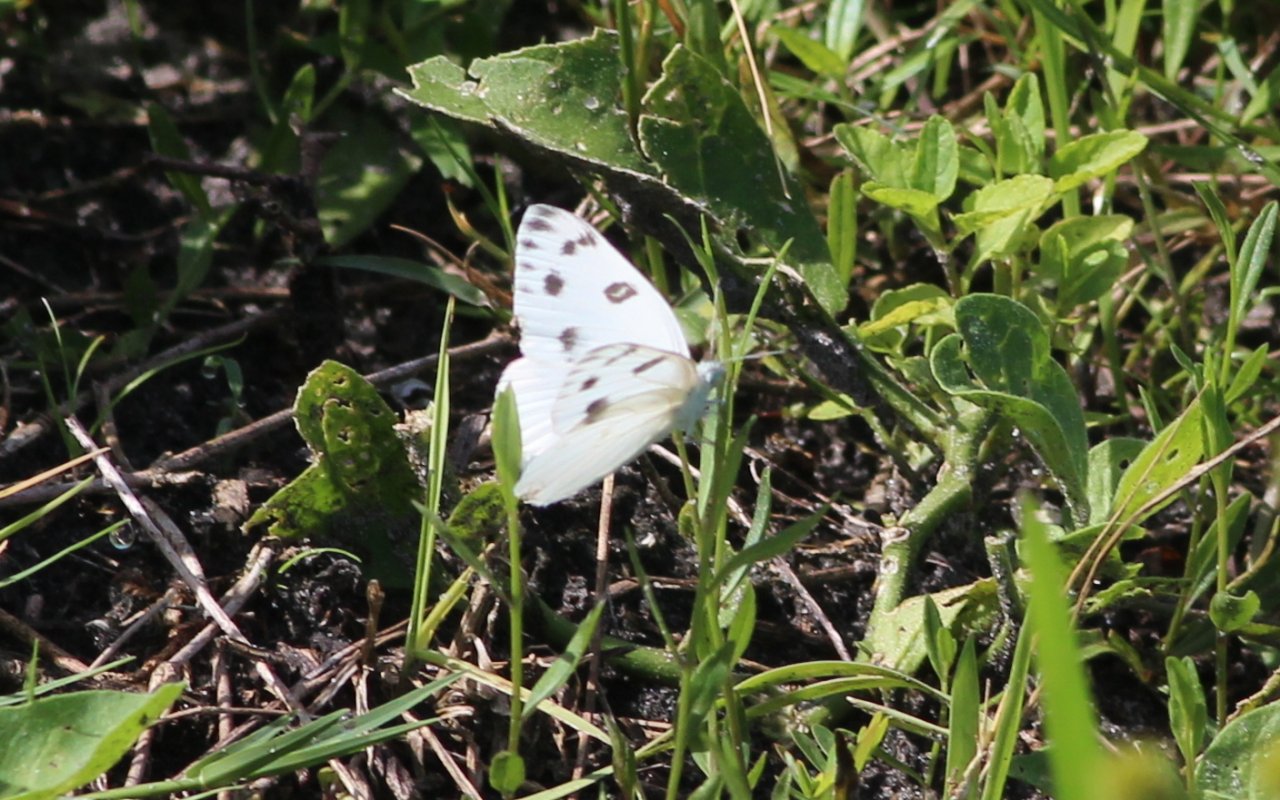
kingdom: Animalia
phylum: Arthropoda
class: Insecta
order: Lepidoptera
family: Pieridae
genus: Pontia
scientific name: Pontia protodice
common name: Checkered White
